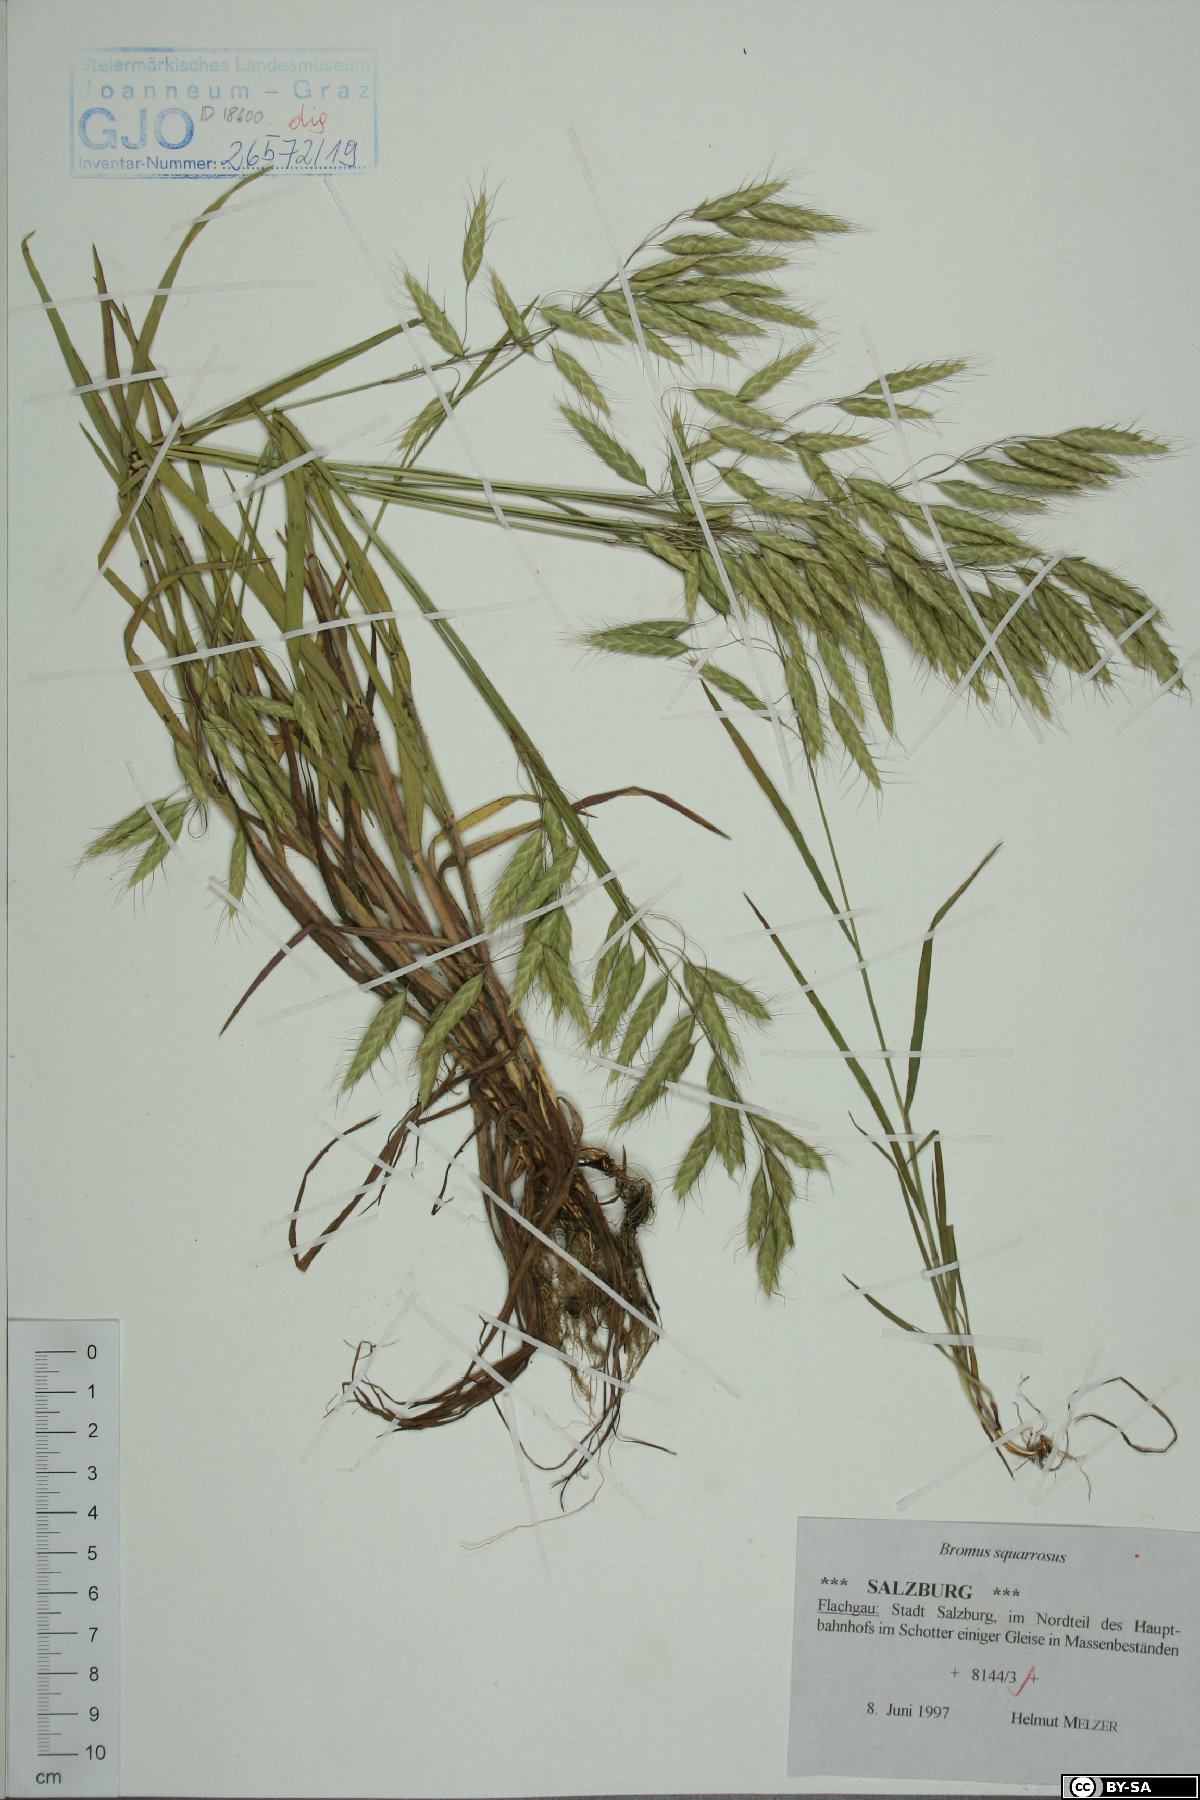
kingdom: Plantae
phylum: Tracheophyta
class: Liliopsida
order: Poales
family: Poaceae
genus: Bromus
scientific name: Bromus squarrosus
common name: Corn brome
